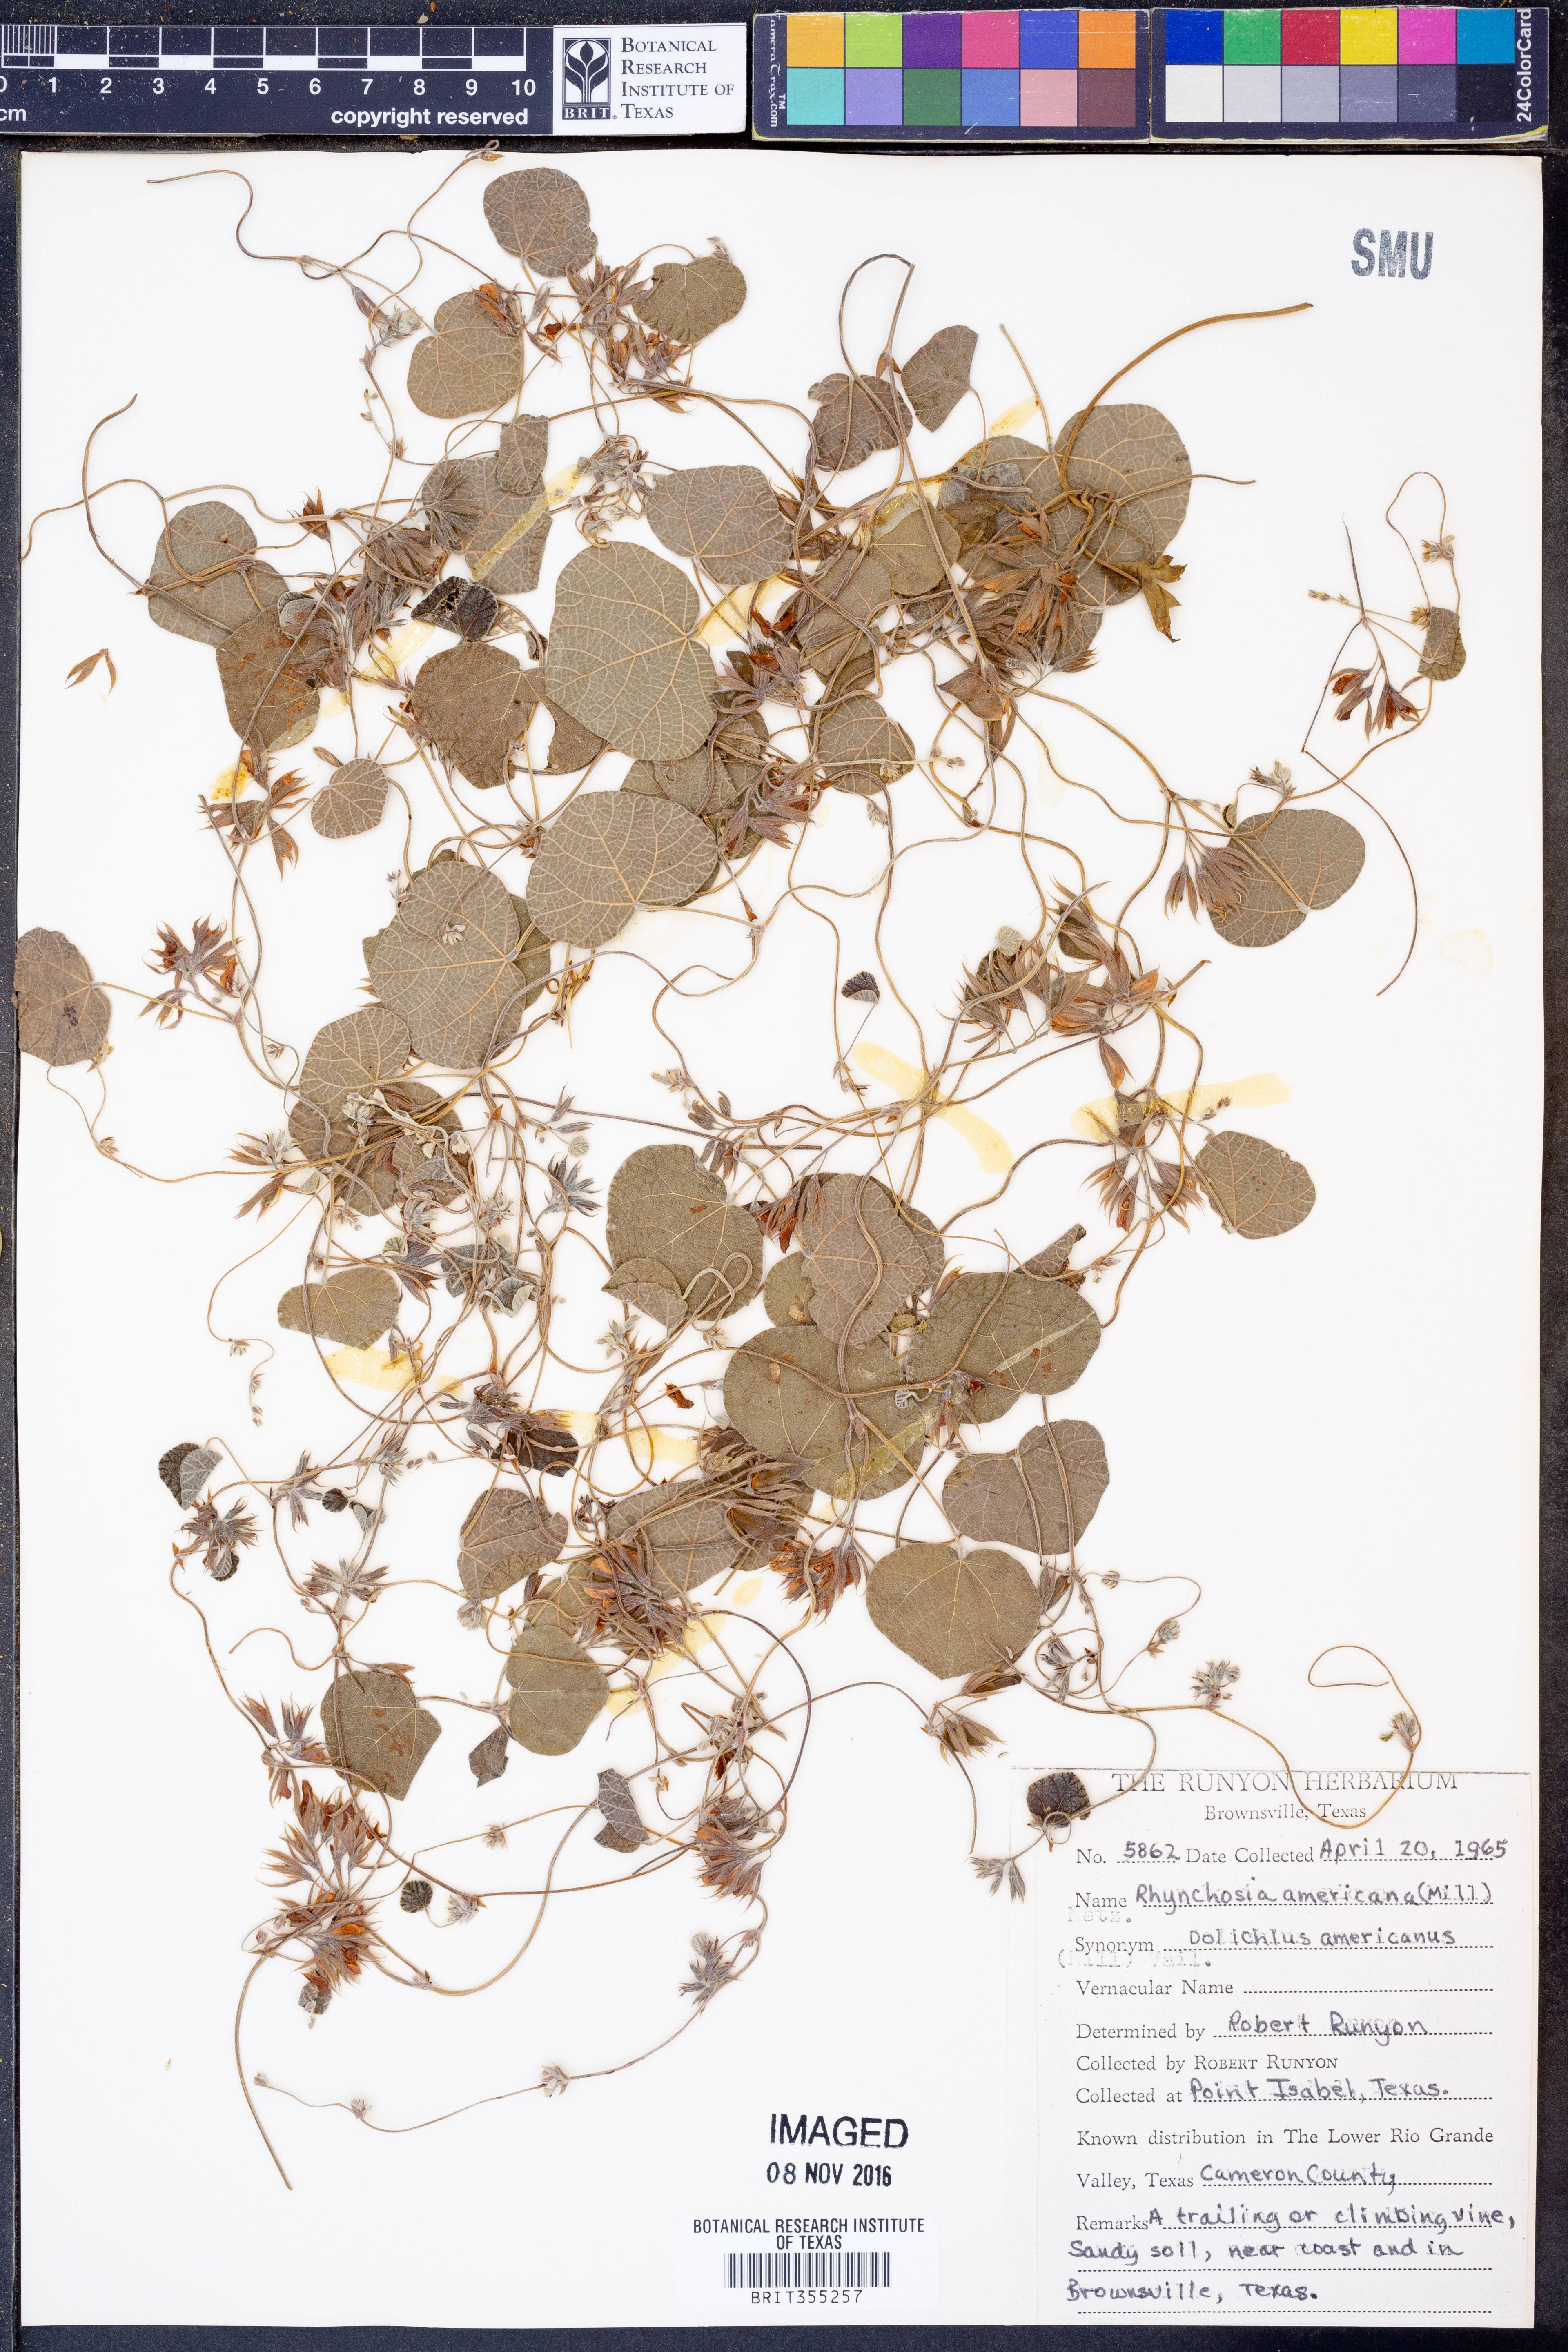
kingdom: Plantae
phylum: Tracheophyta
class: Magnoliopsida
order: Fabales
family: Fabaceae
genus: Rhynchosia
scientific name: Rhynchosia americana
